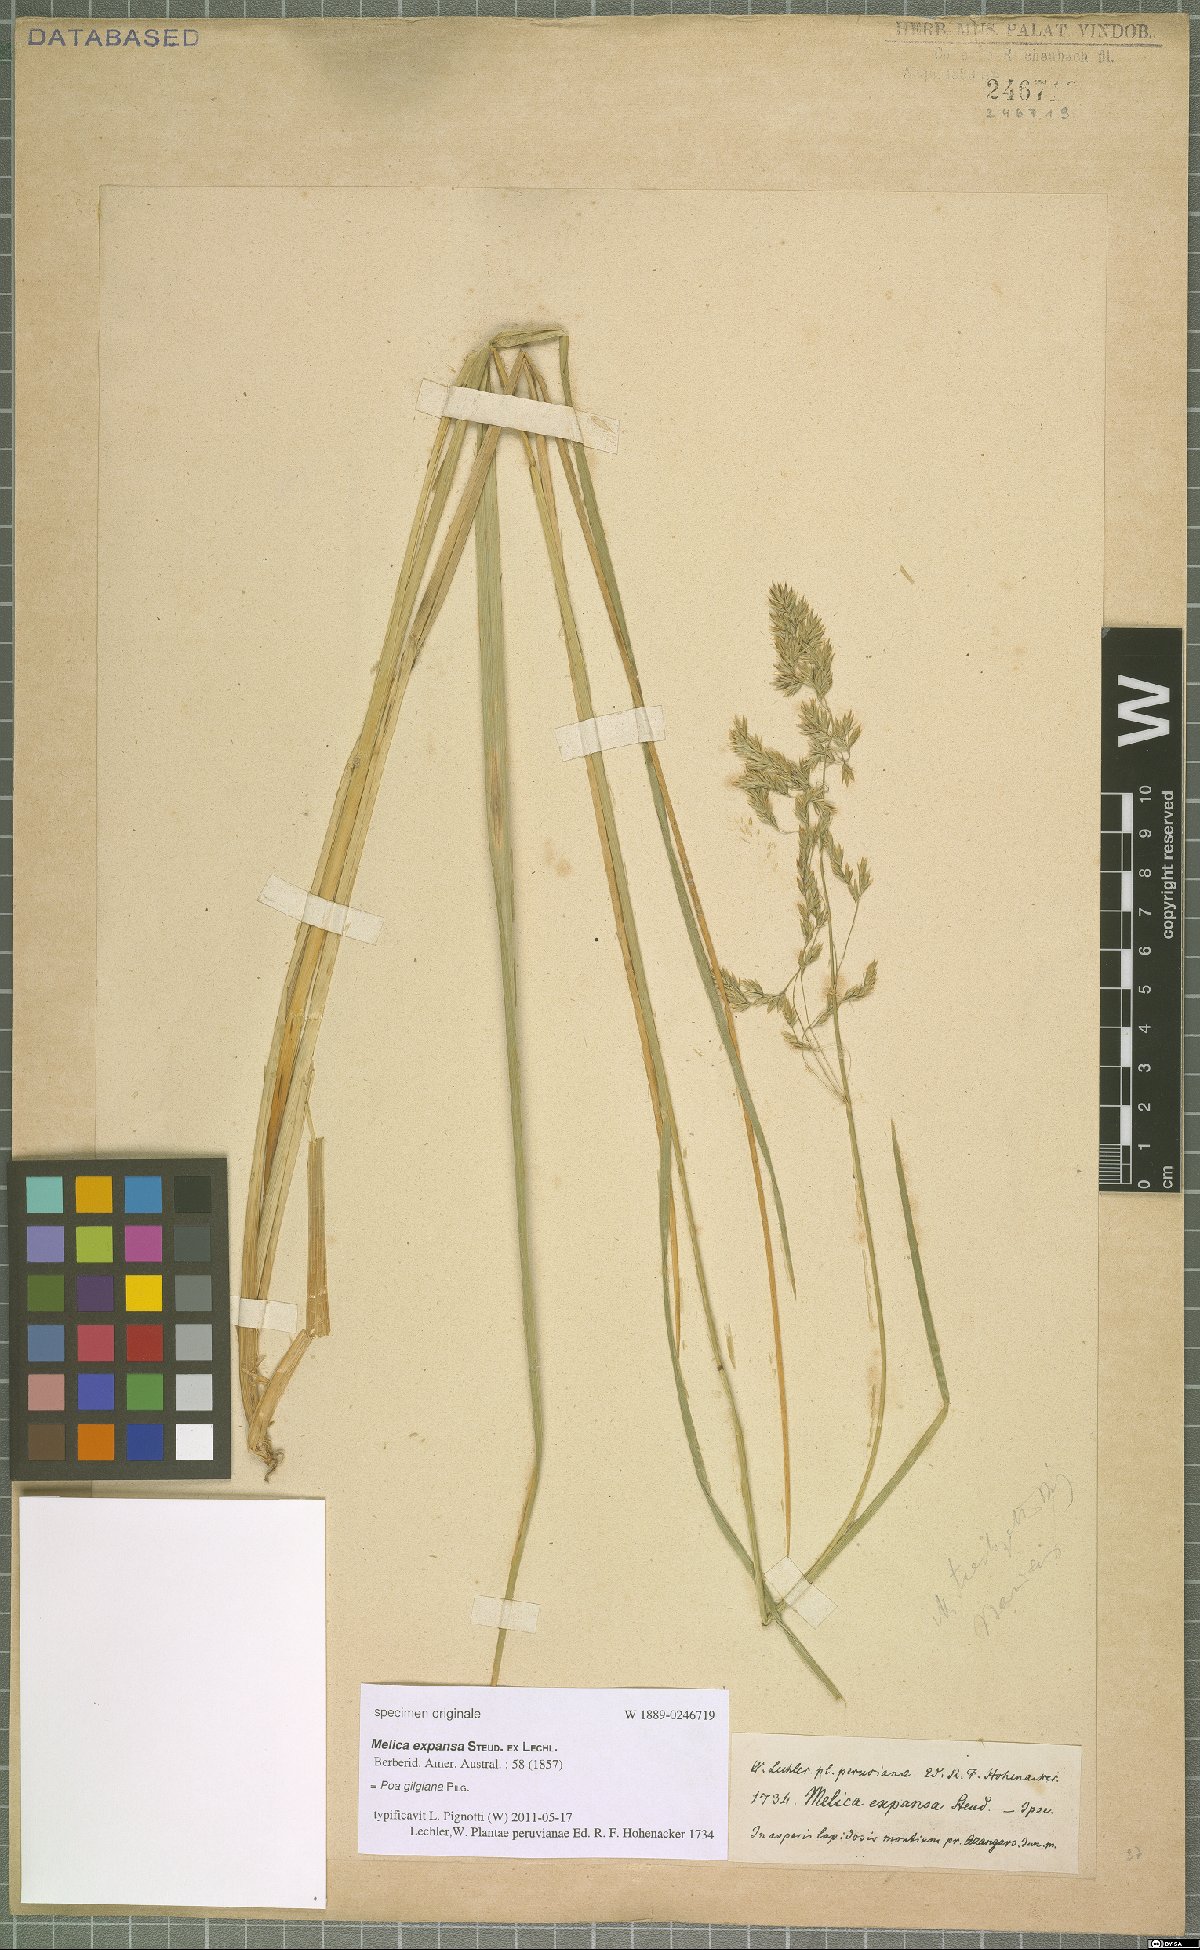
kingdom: Plantae
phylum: Tracheophyta
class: Liliopsida
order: Poales
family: Poaceae
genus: Poa
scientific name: Poa gilgiana
